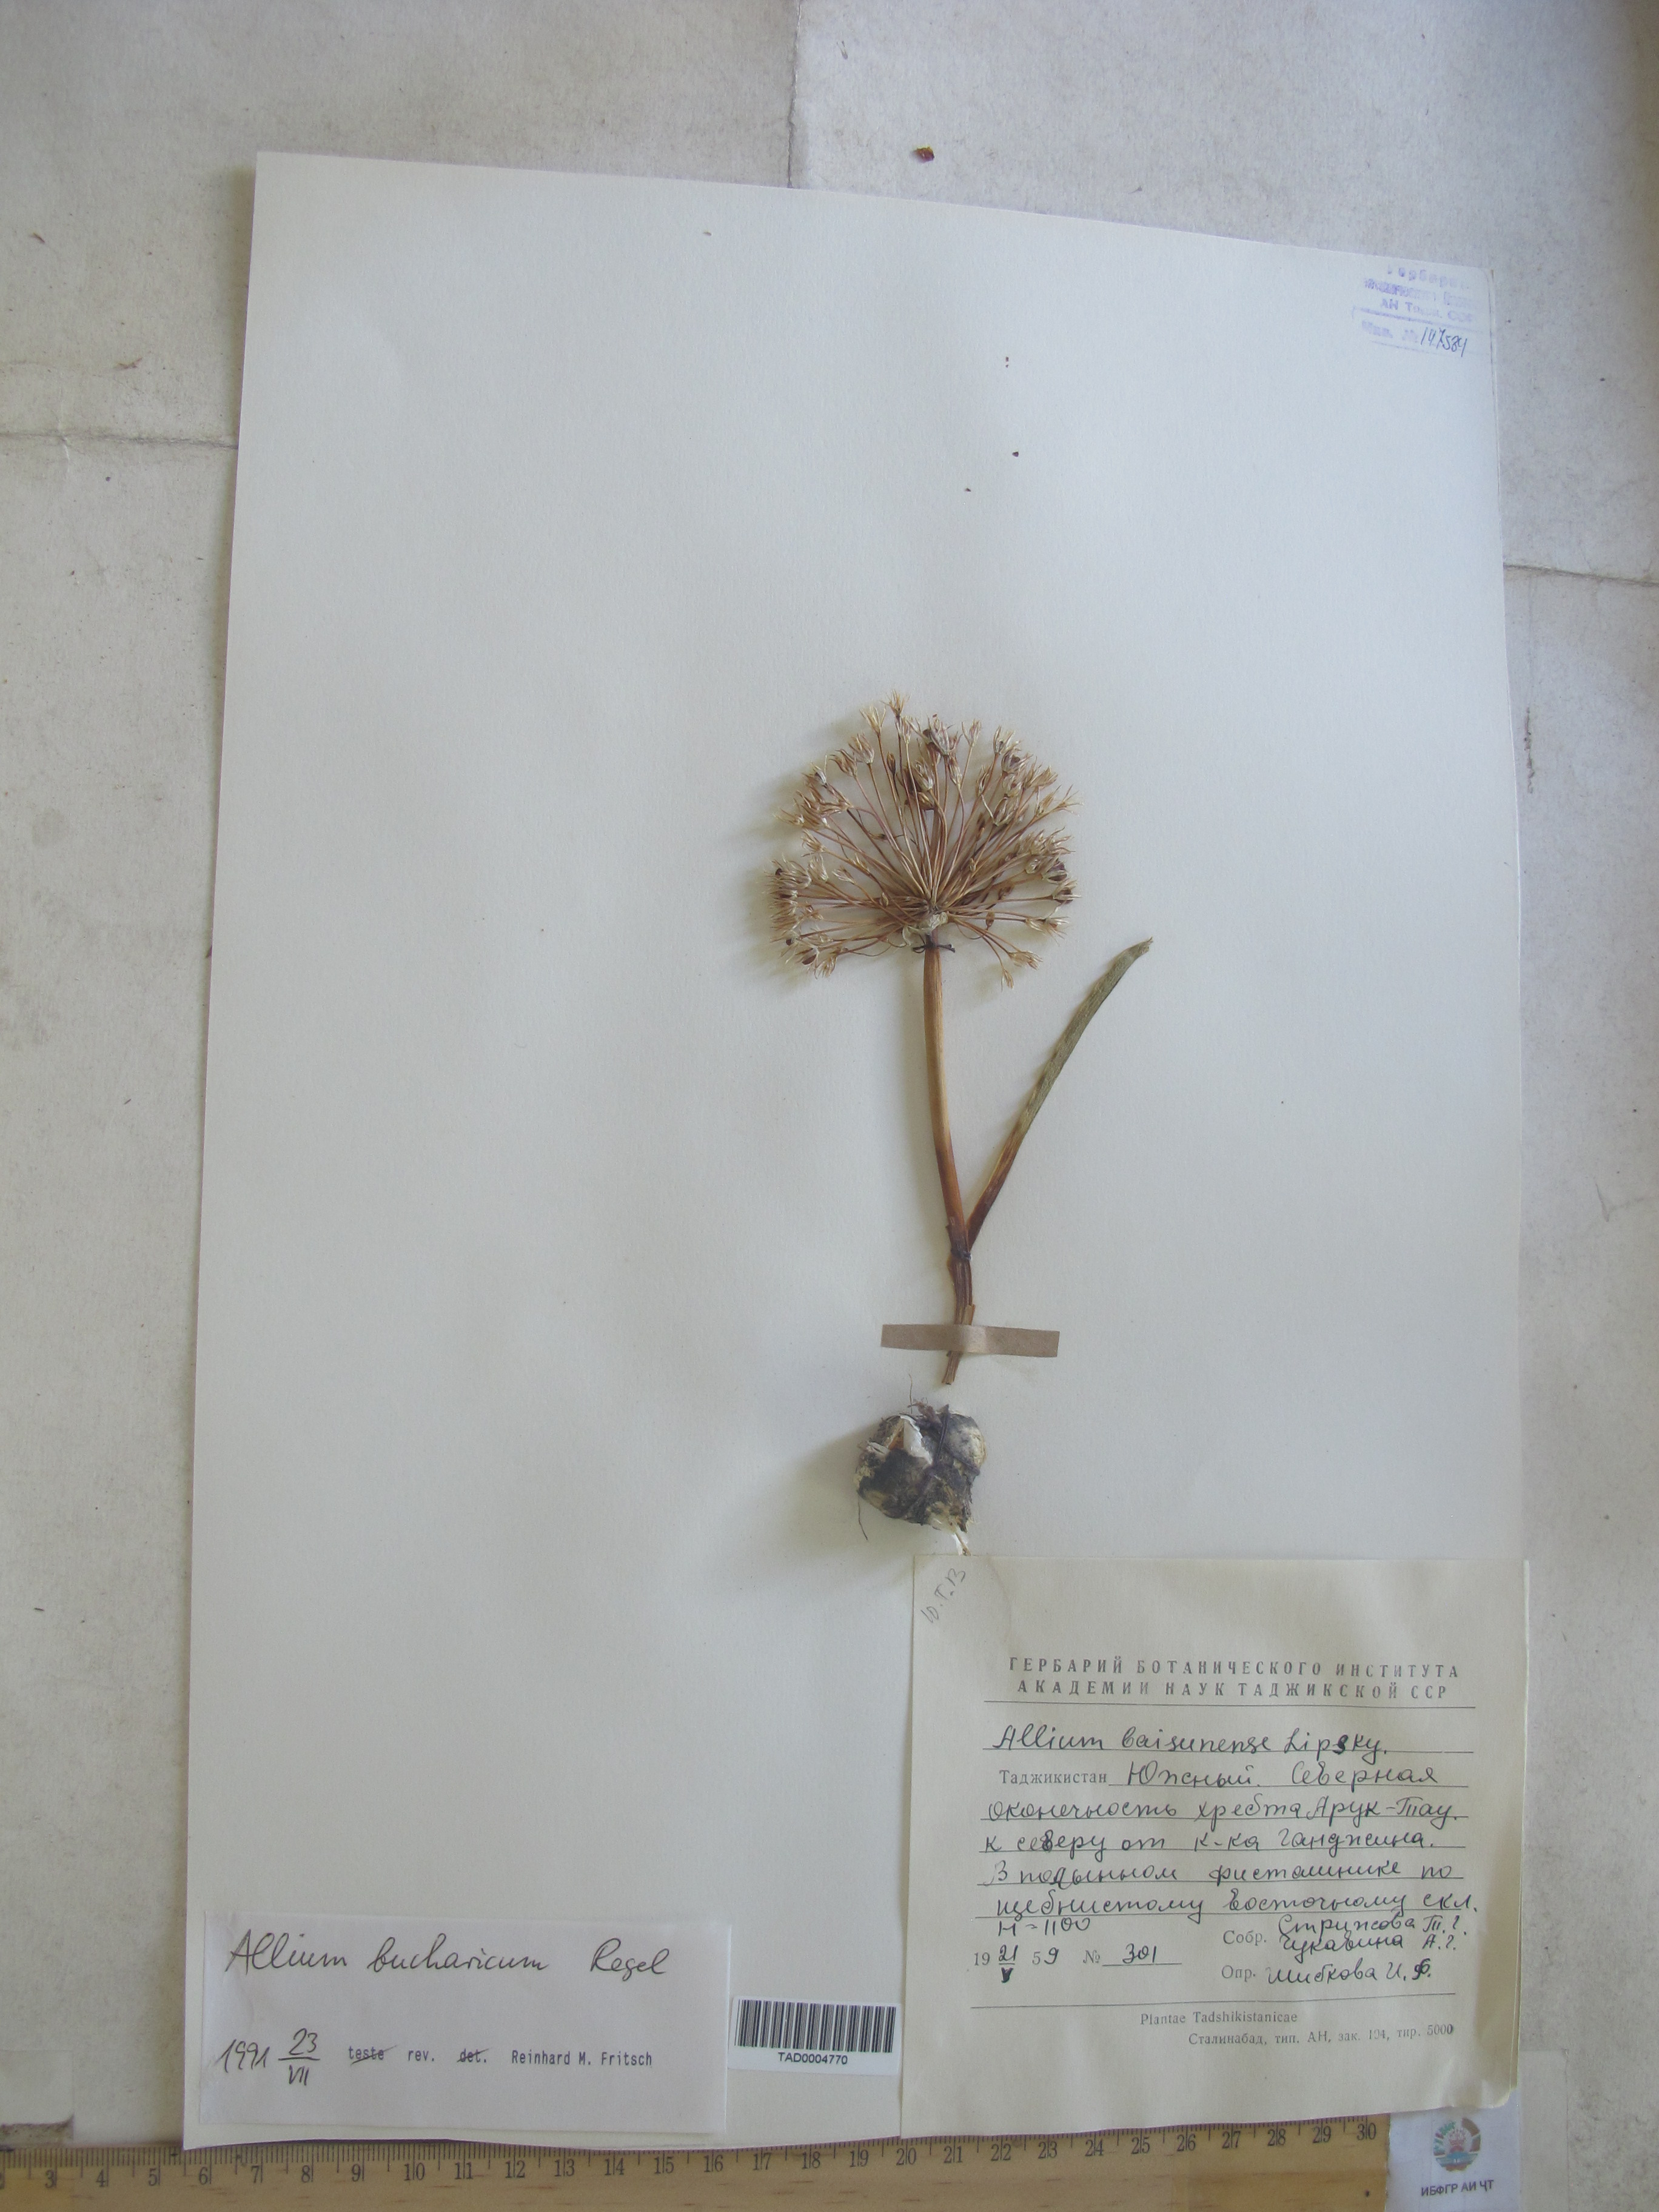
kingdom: Plantae
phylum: Tracheophyta
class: Liliopsida
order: Asparagales
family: Amaryllidaceae
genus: Allium
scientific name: Allium bucharicum
